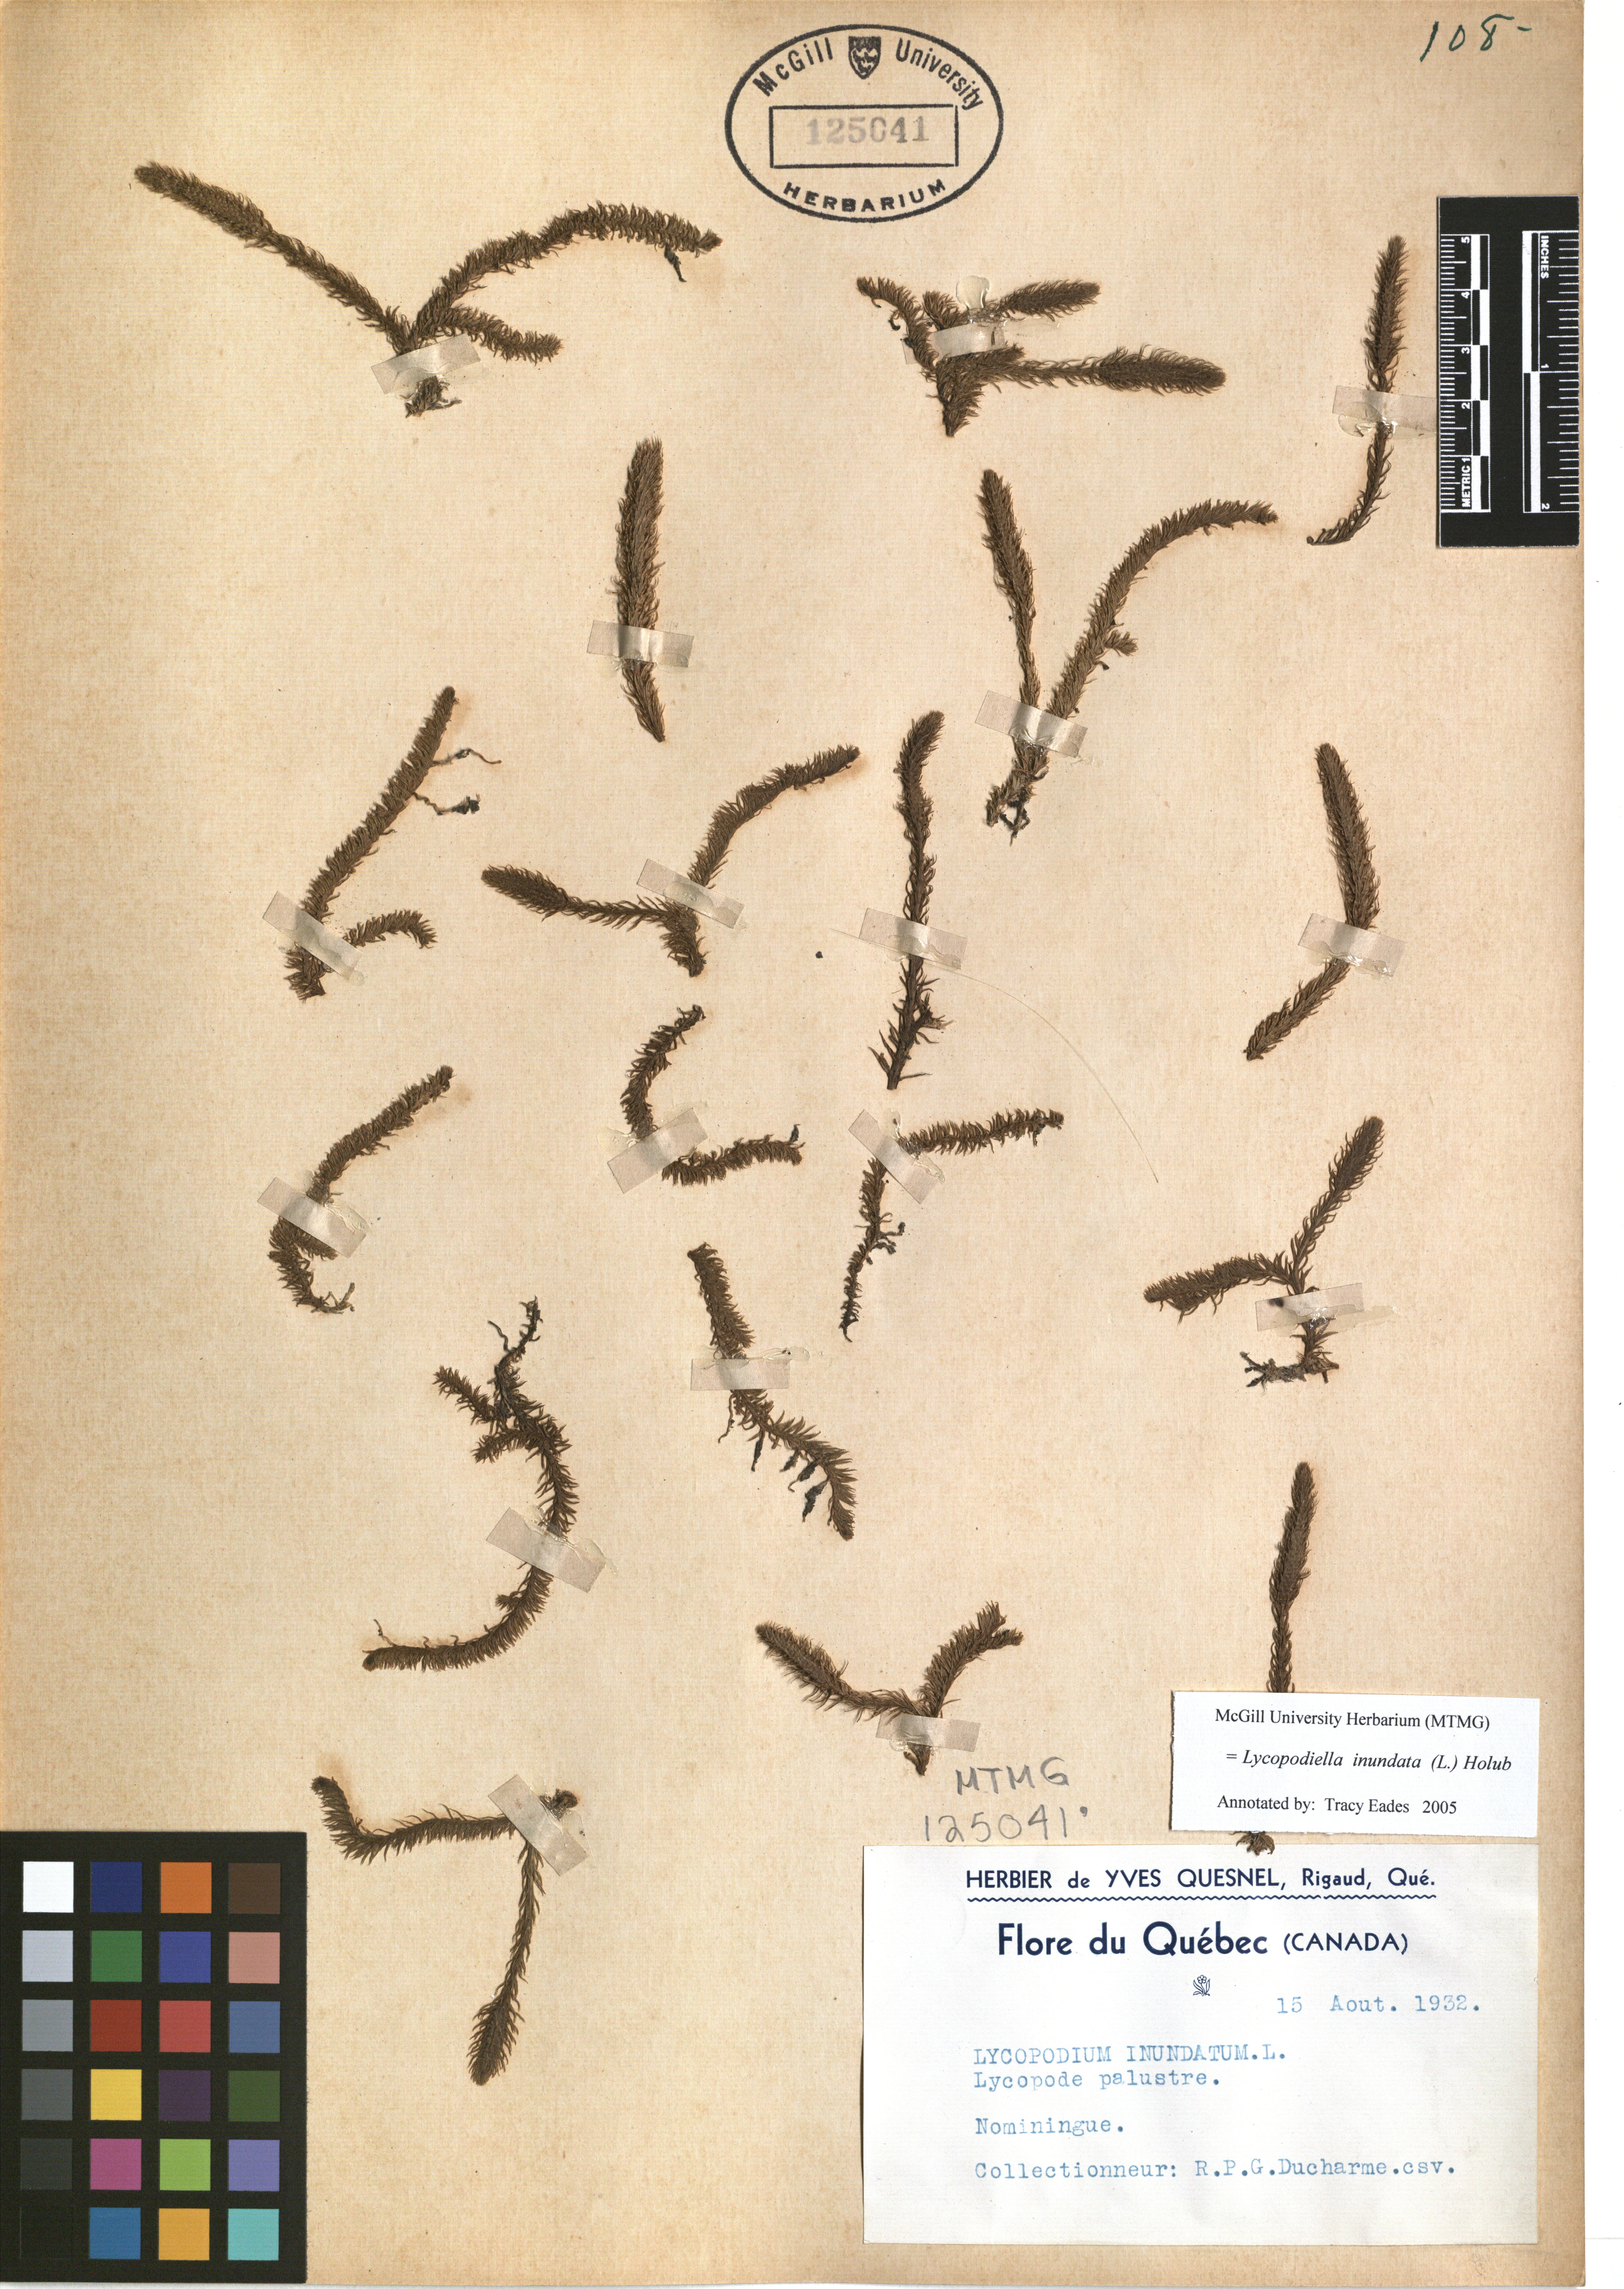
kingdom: Plantae
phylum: Tracheophyta
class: Lycopodiopsida
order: Lycopodiales
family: Lycopodiaceae
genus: Lycopodiella
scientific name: Lycopodiella inundata
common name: Marsh clubmoss
